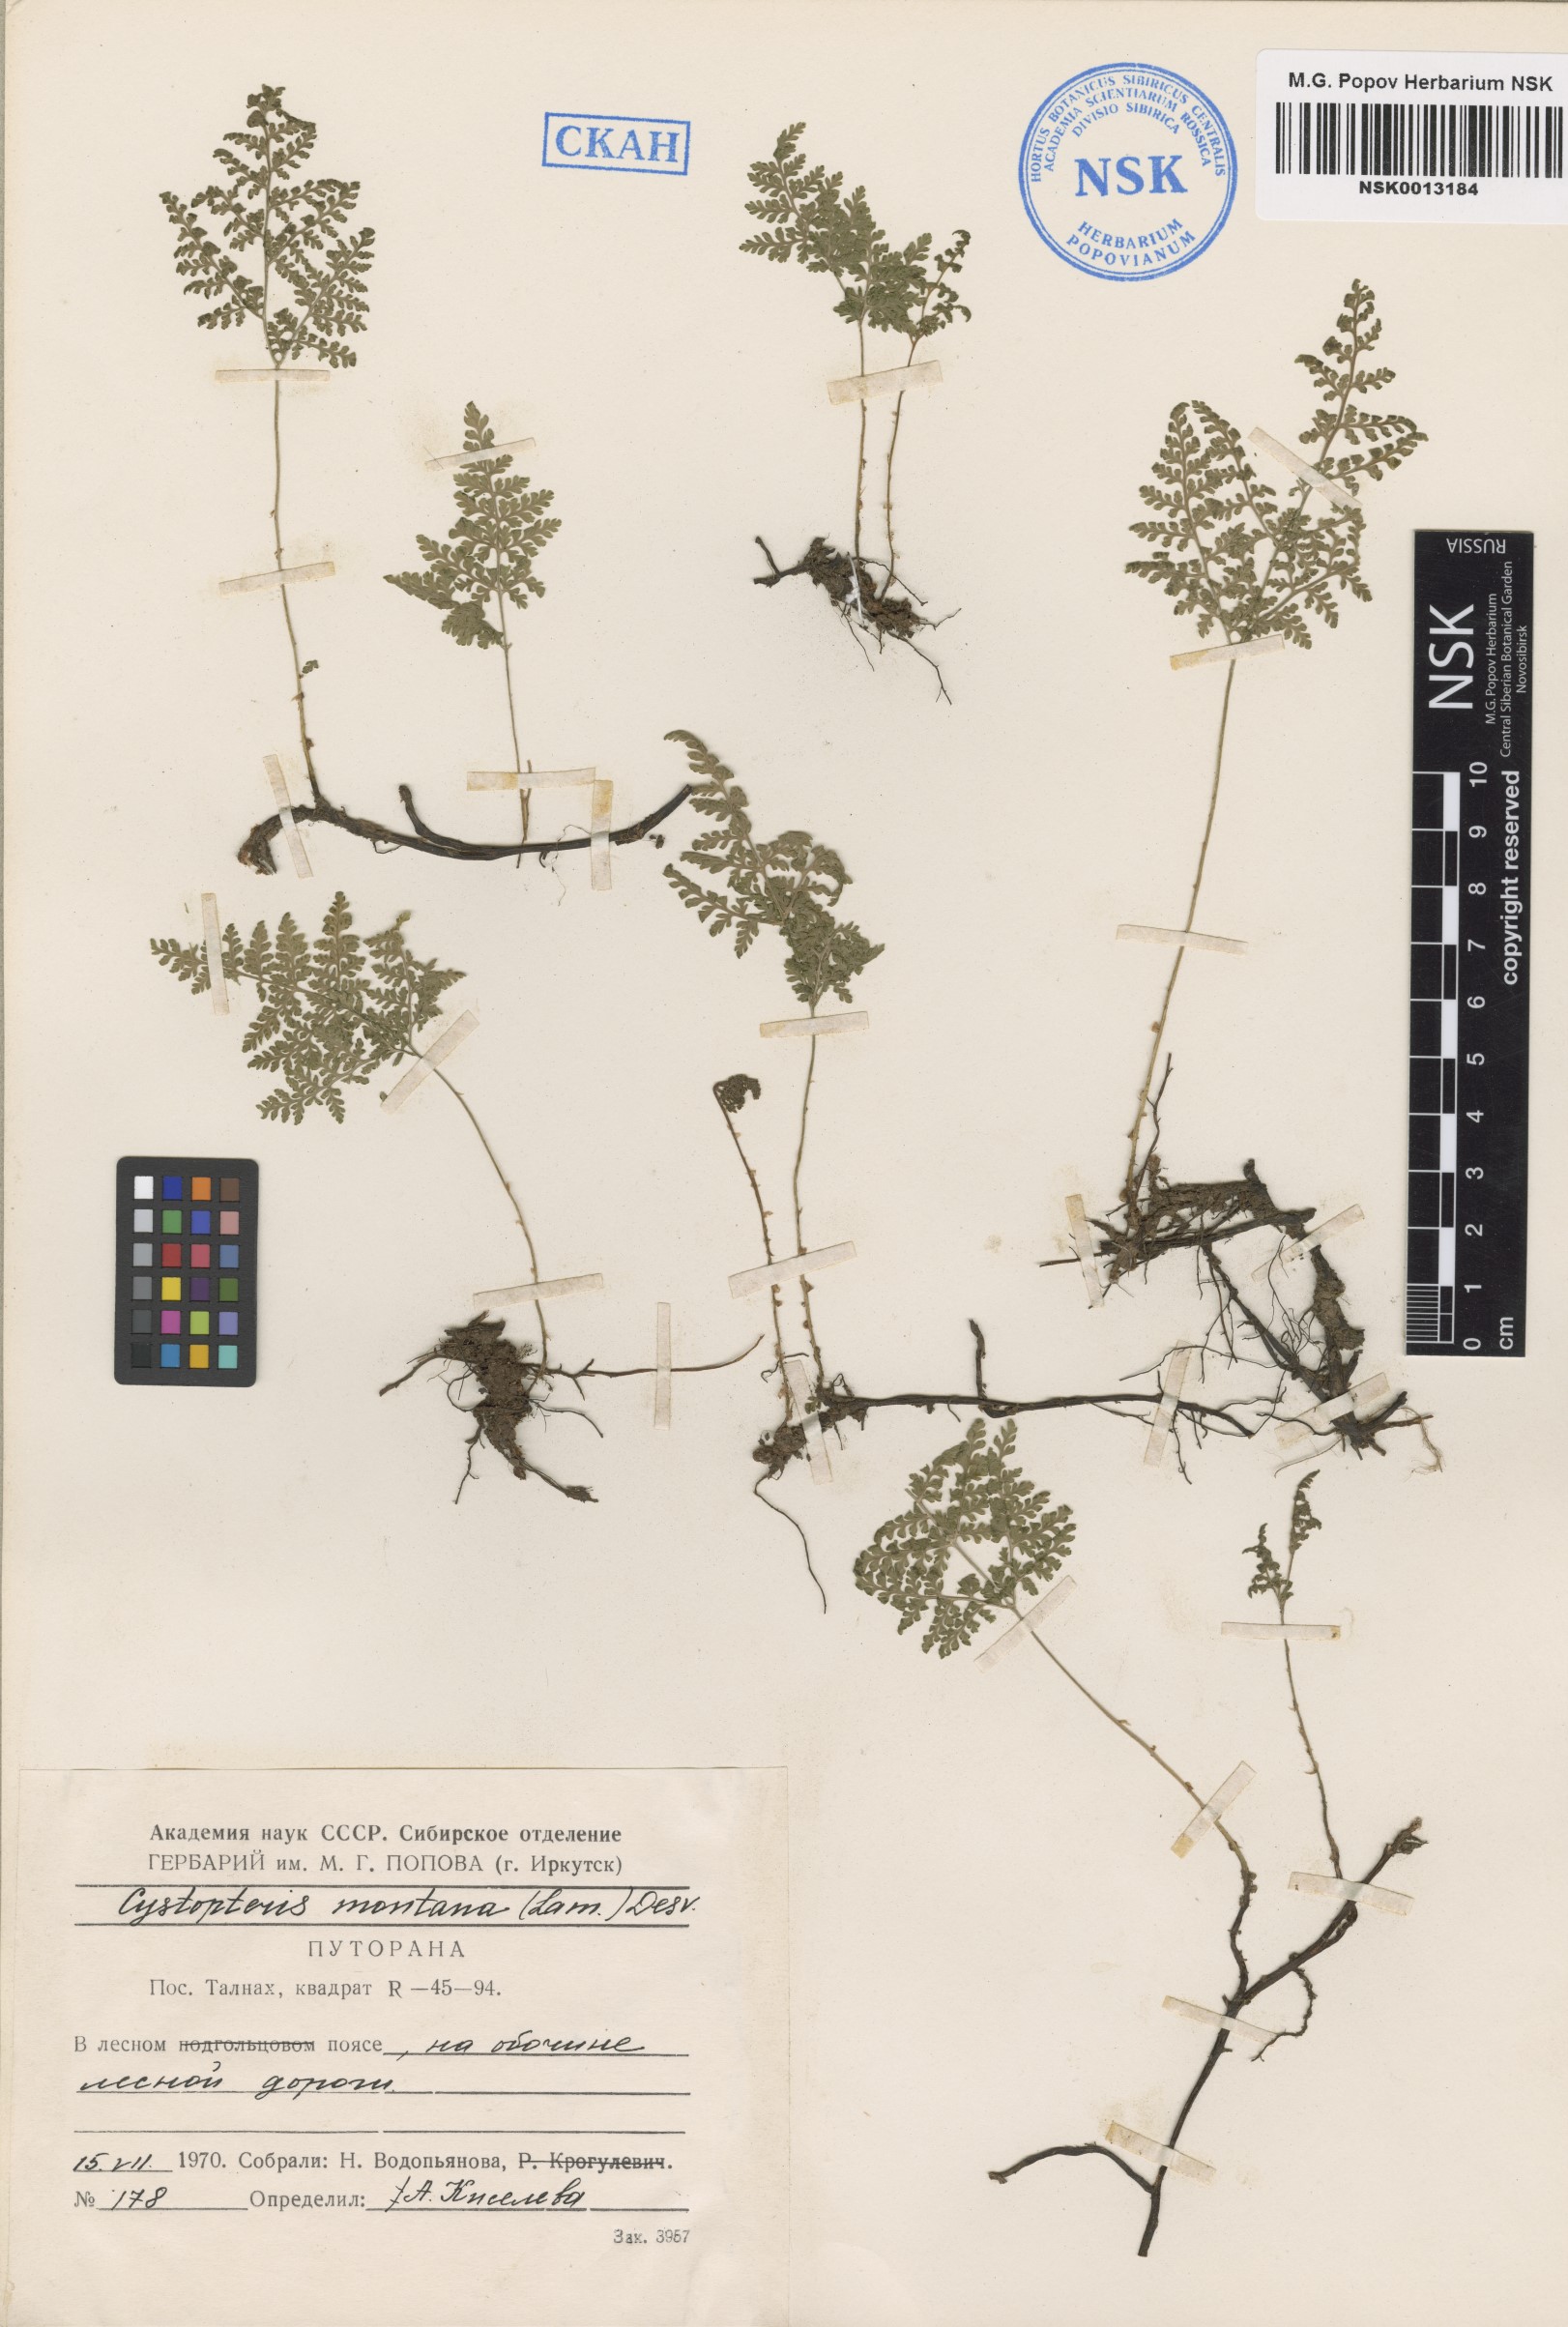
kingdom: Plantae
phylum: Tracheophyta
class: Polypodiopsida
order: Polypodiales
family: Cystopteridaceae
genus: Cystopteris
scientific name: Cystopteris montana
